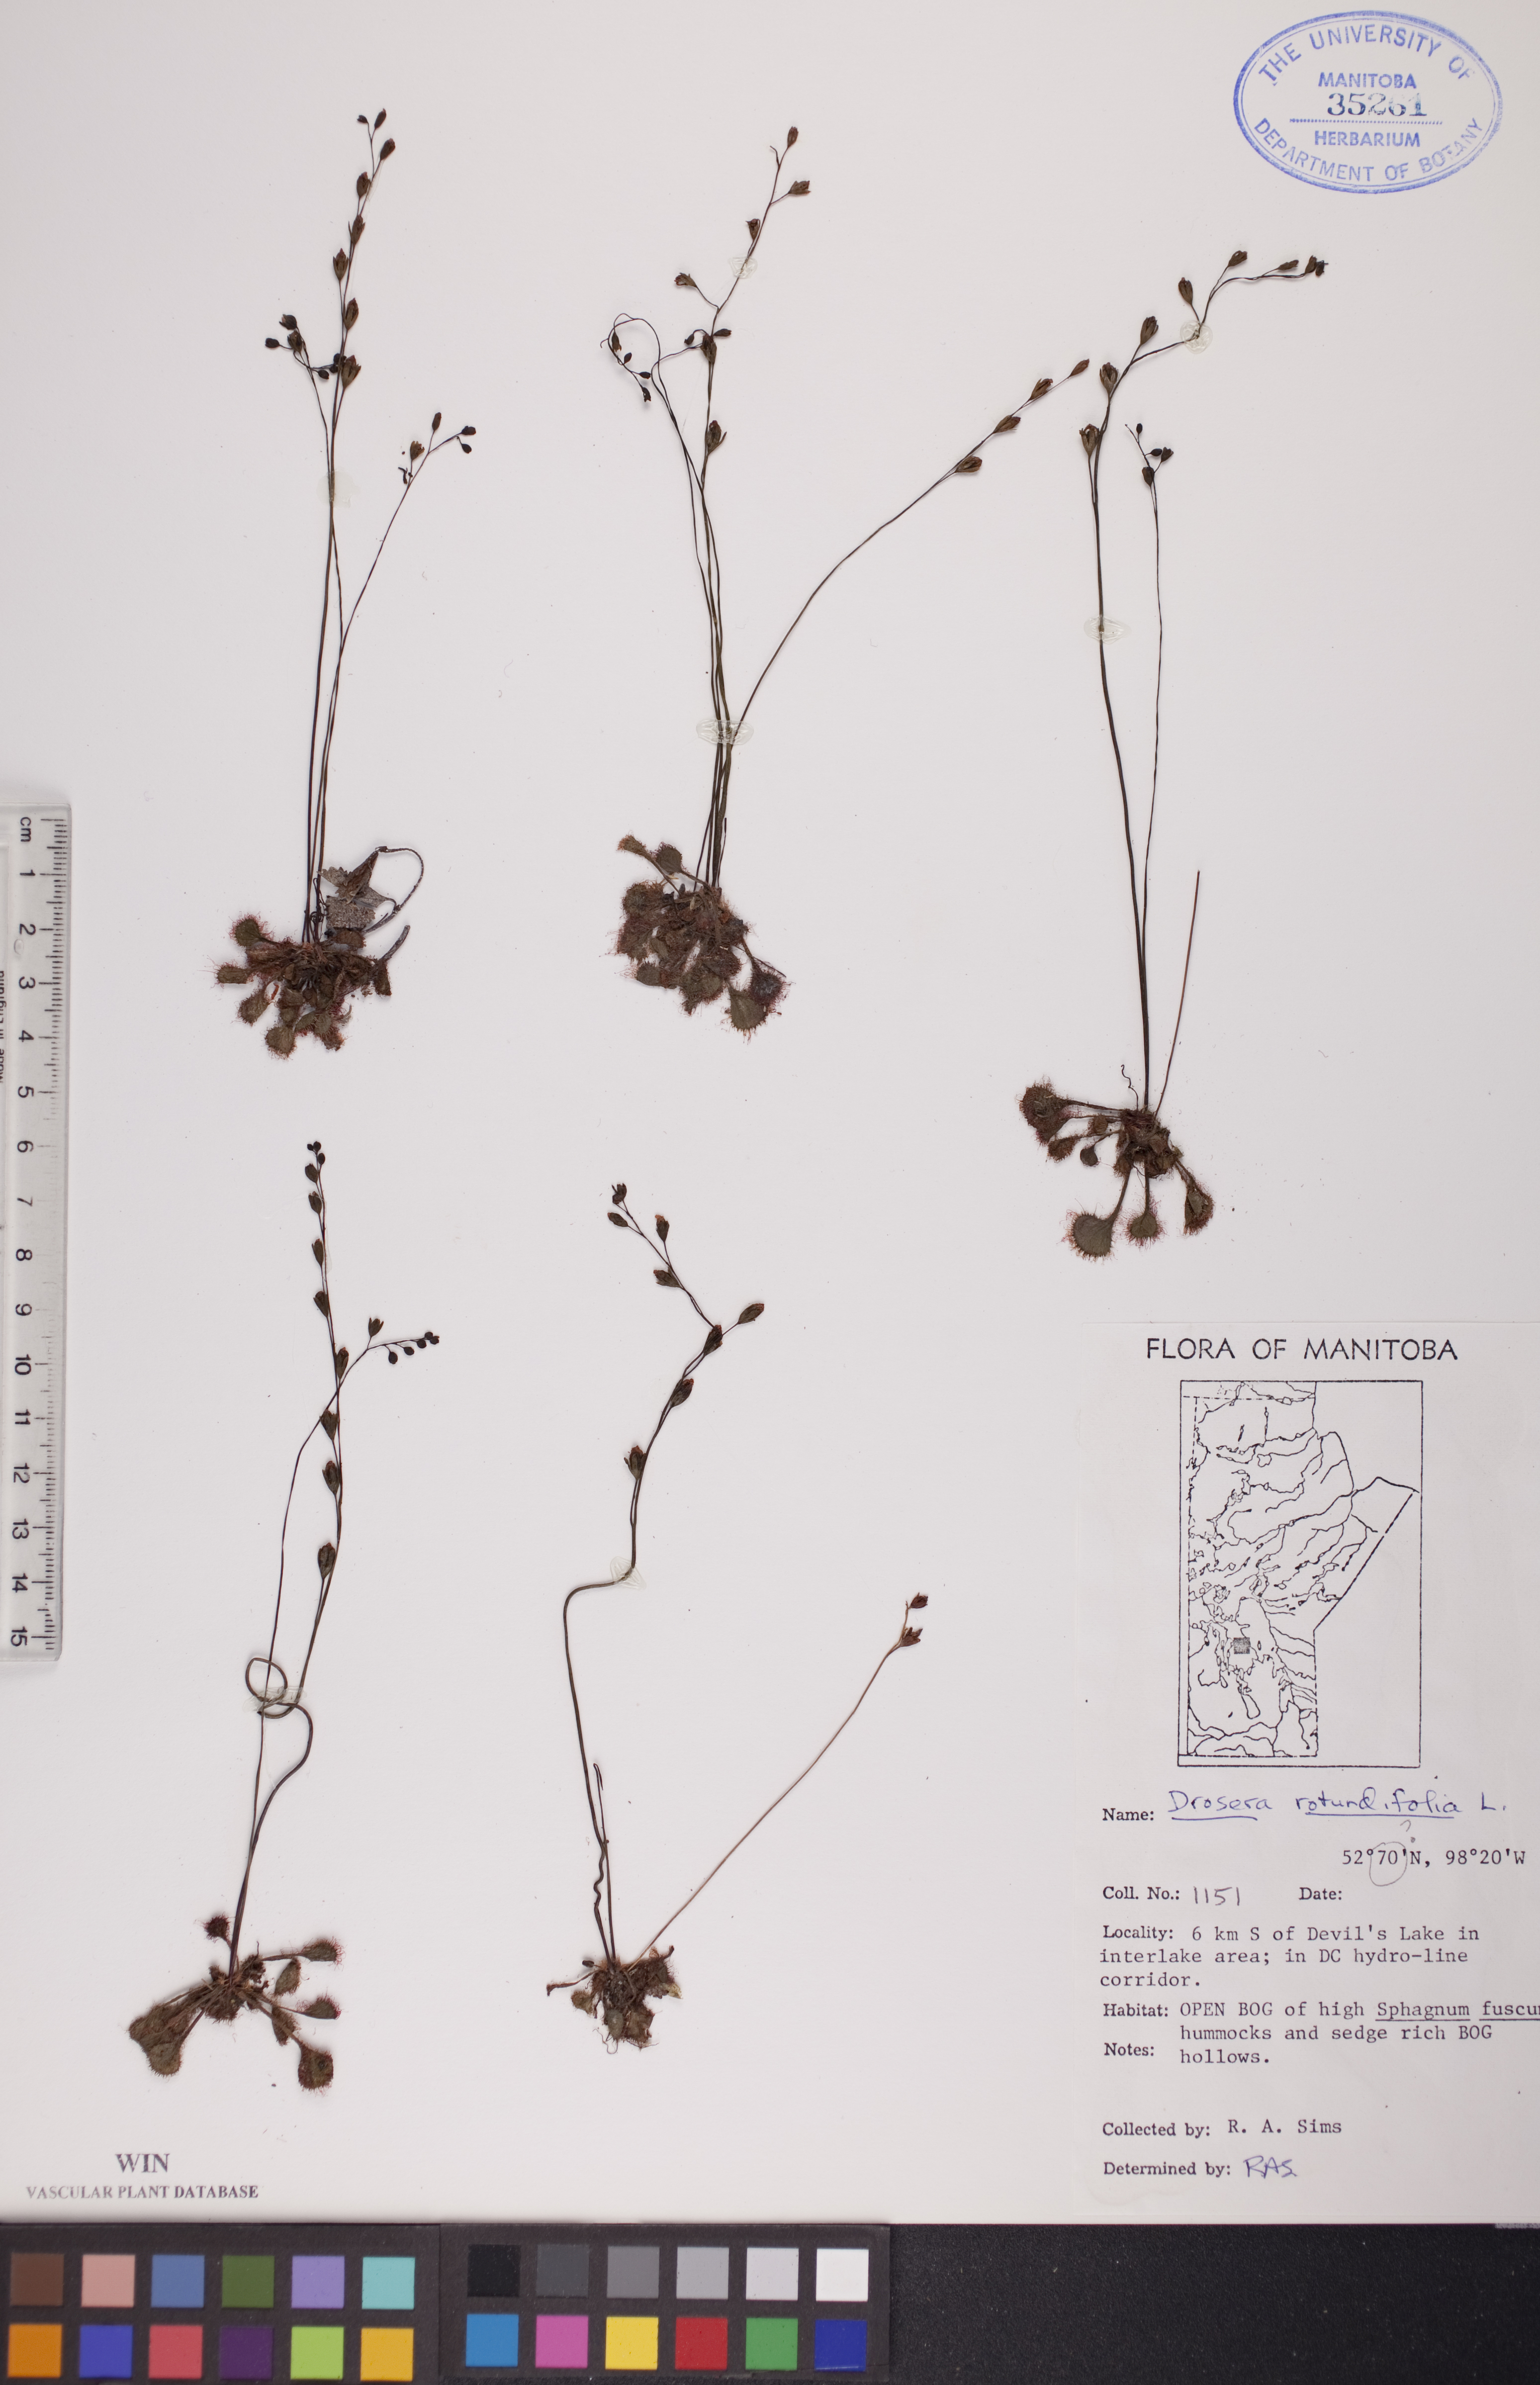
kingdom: Plantae
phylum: Tracheophyta
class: Magnoliopsida
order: Caryophyllales
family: Droseraceae
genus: Drosera
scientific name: Drosera rotundifolia
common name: Round-leaved sundew
